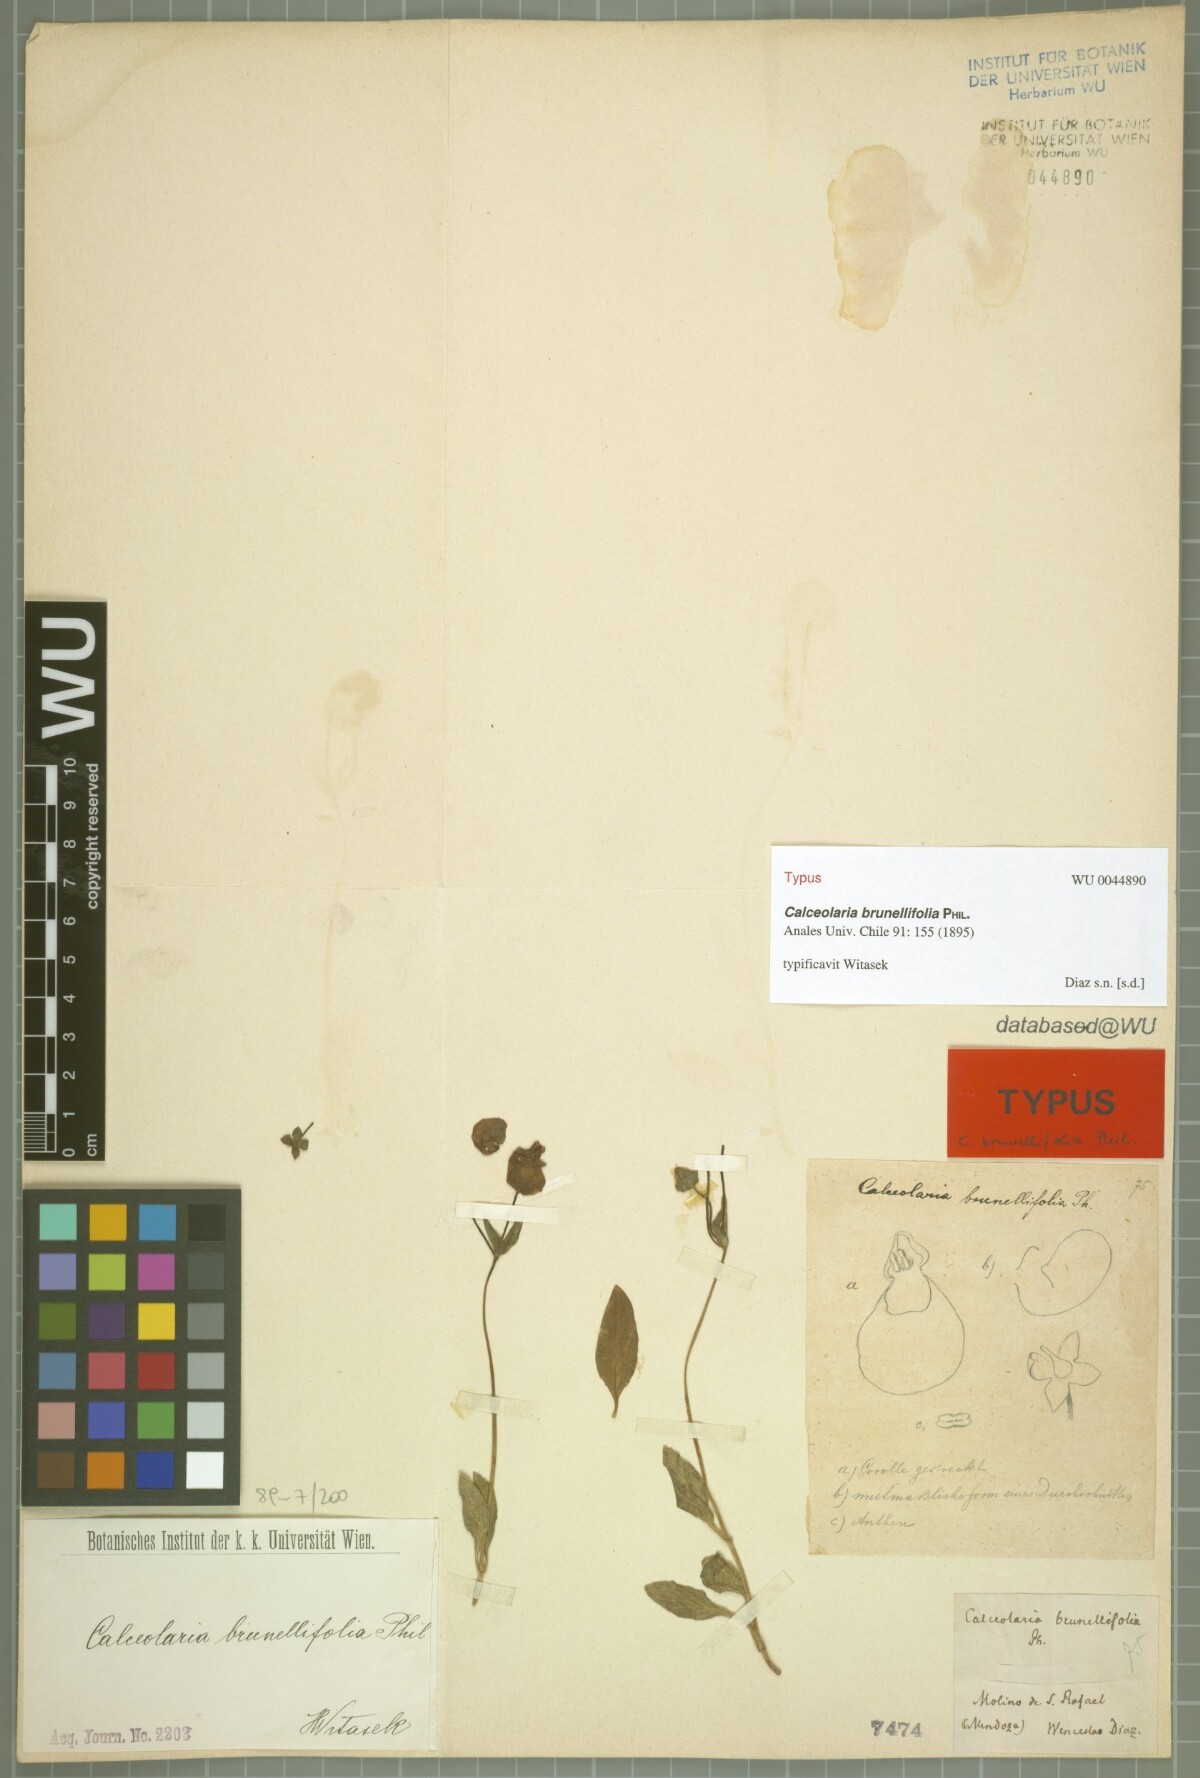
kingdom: Plantae
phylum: Tracheophyta
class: Magnoliopsida
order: Lamiales
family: Calceolariaceae
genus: Calceolaria
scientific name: Calceolaria brunellifolia
